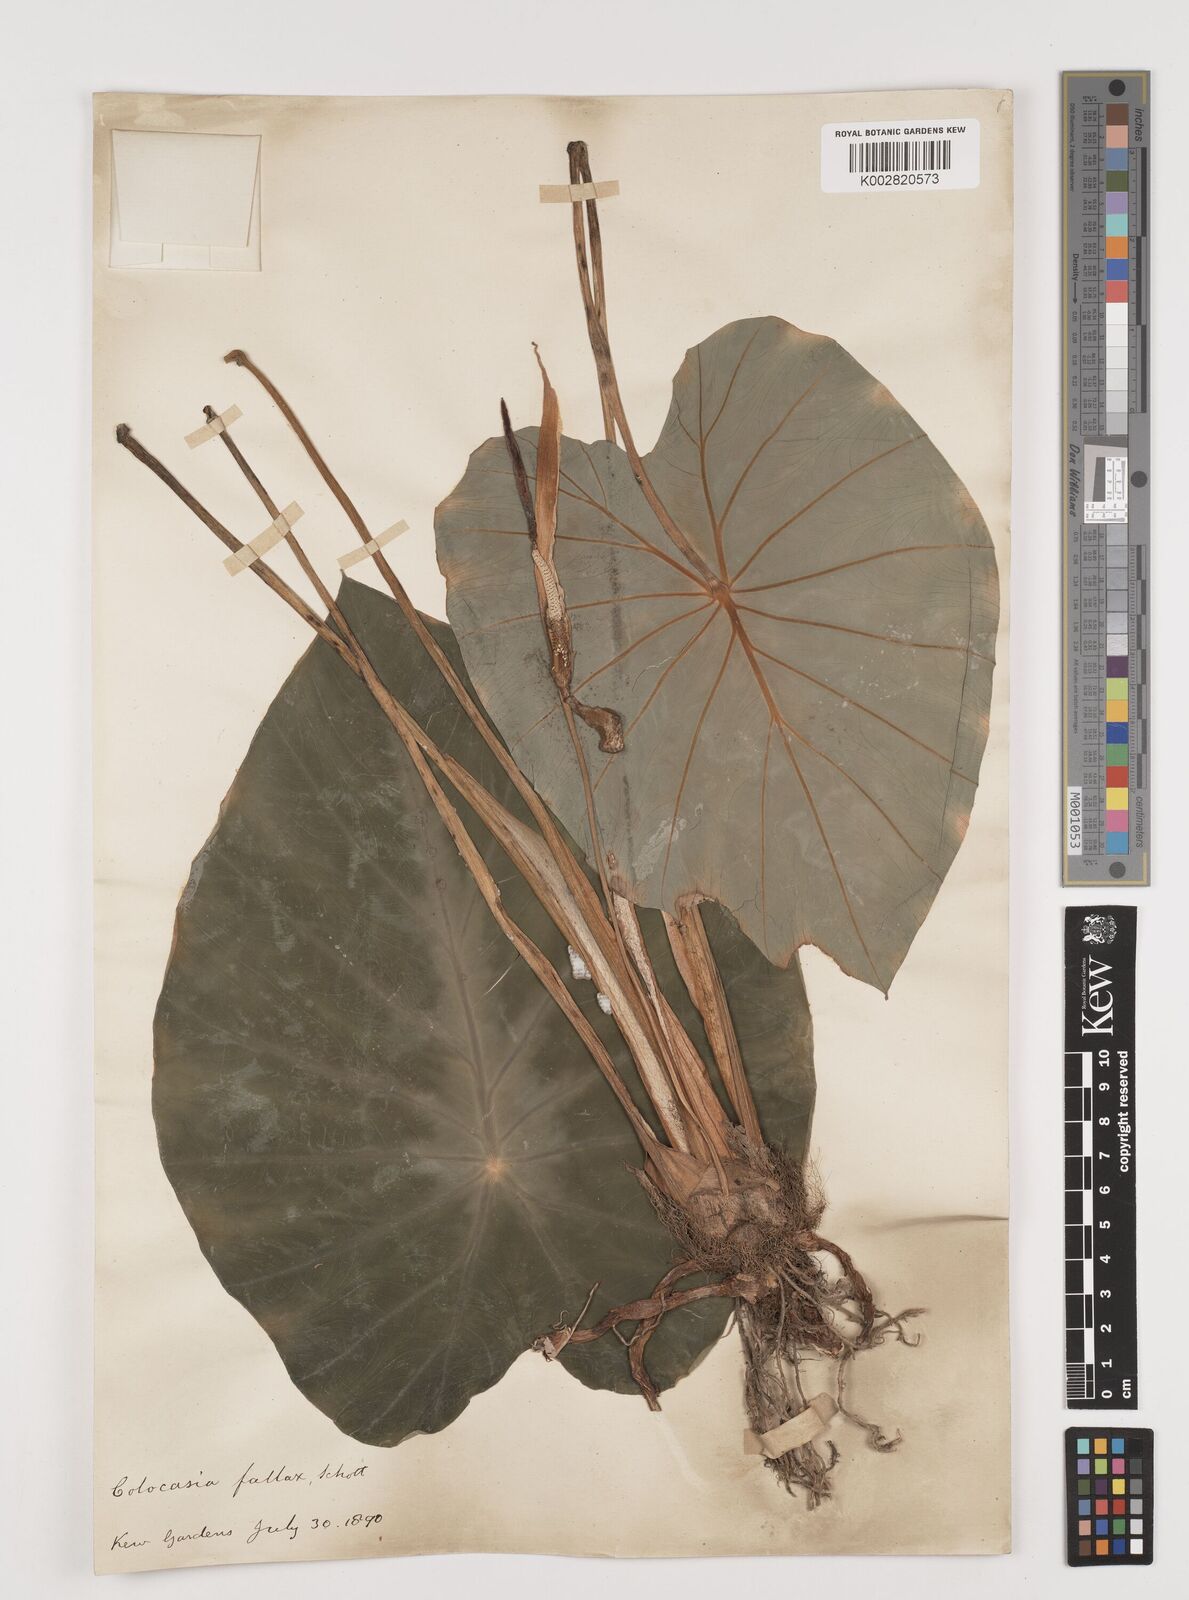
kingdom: Plantae
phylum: Tracheophyta
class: Liliopsida
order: Alismatales
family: Araceae
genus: Colocasia
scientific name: Colocasia fallax
